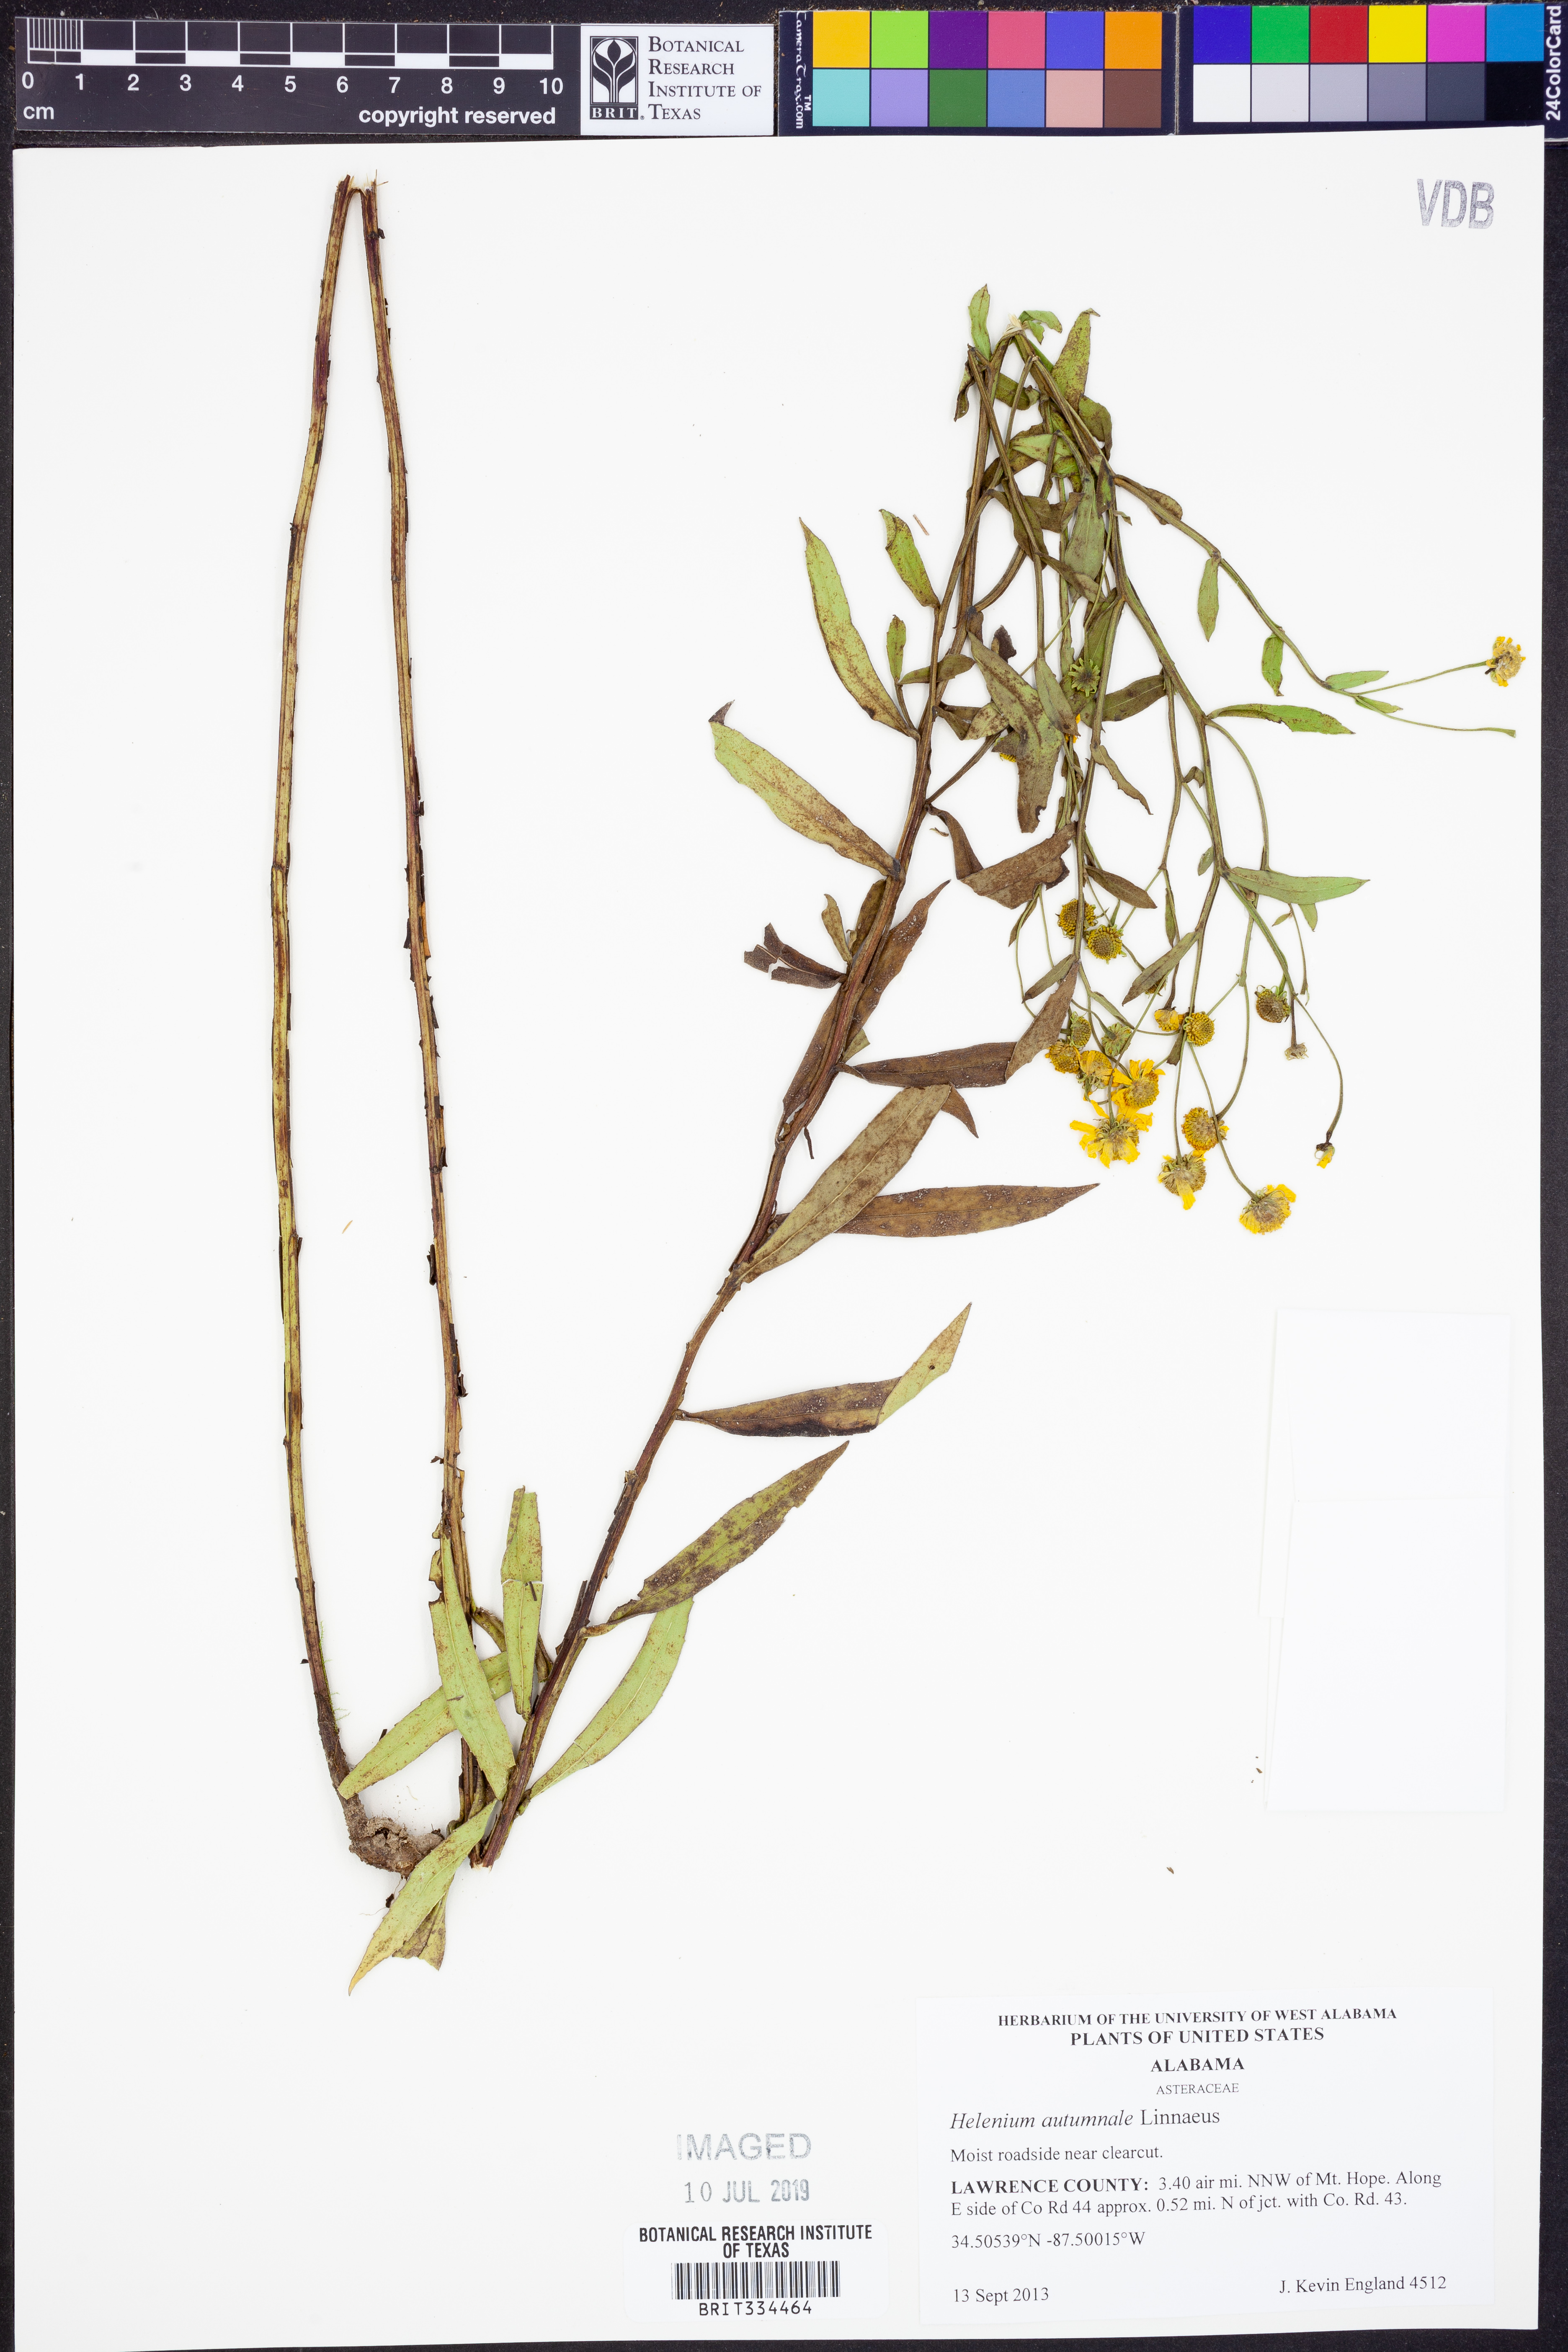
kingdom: Plantae
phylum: Tracheophyta
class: Magnoliopsida
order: Asterales
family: Asteraceae
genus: Helenium
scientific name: Helenium autumnale
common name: Sneezeweed
